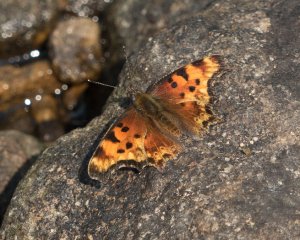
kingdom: Animalia
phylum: Arthropoda
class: Insecta
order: Lepidoptera
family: Nymphalidae
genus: Polygonia
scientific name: Polygonia gracilis
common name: Hoary Comma
